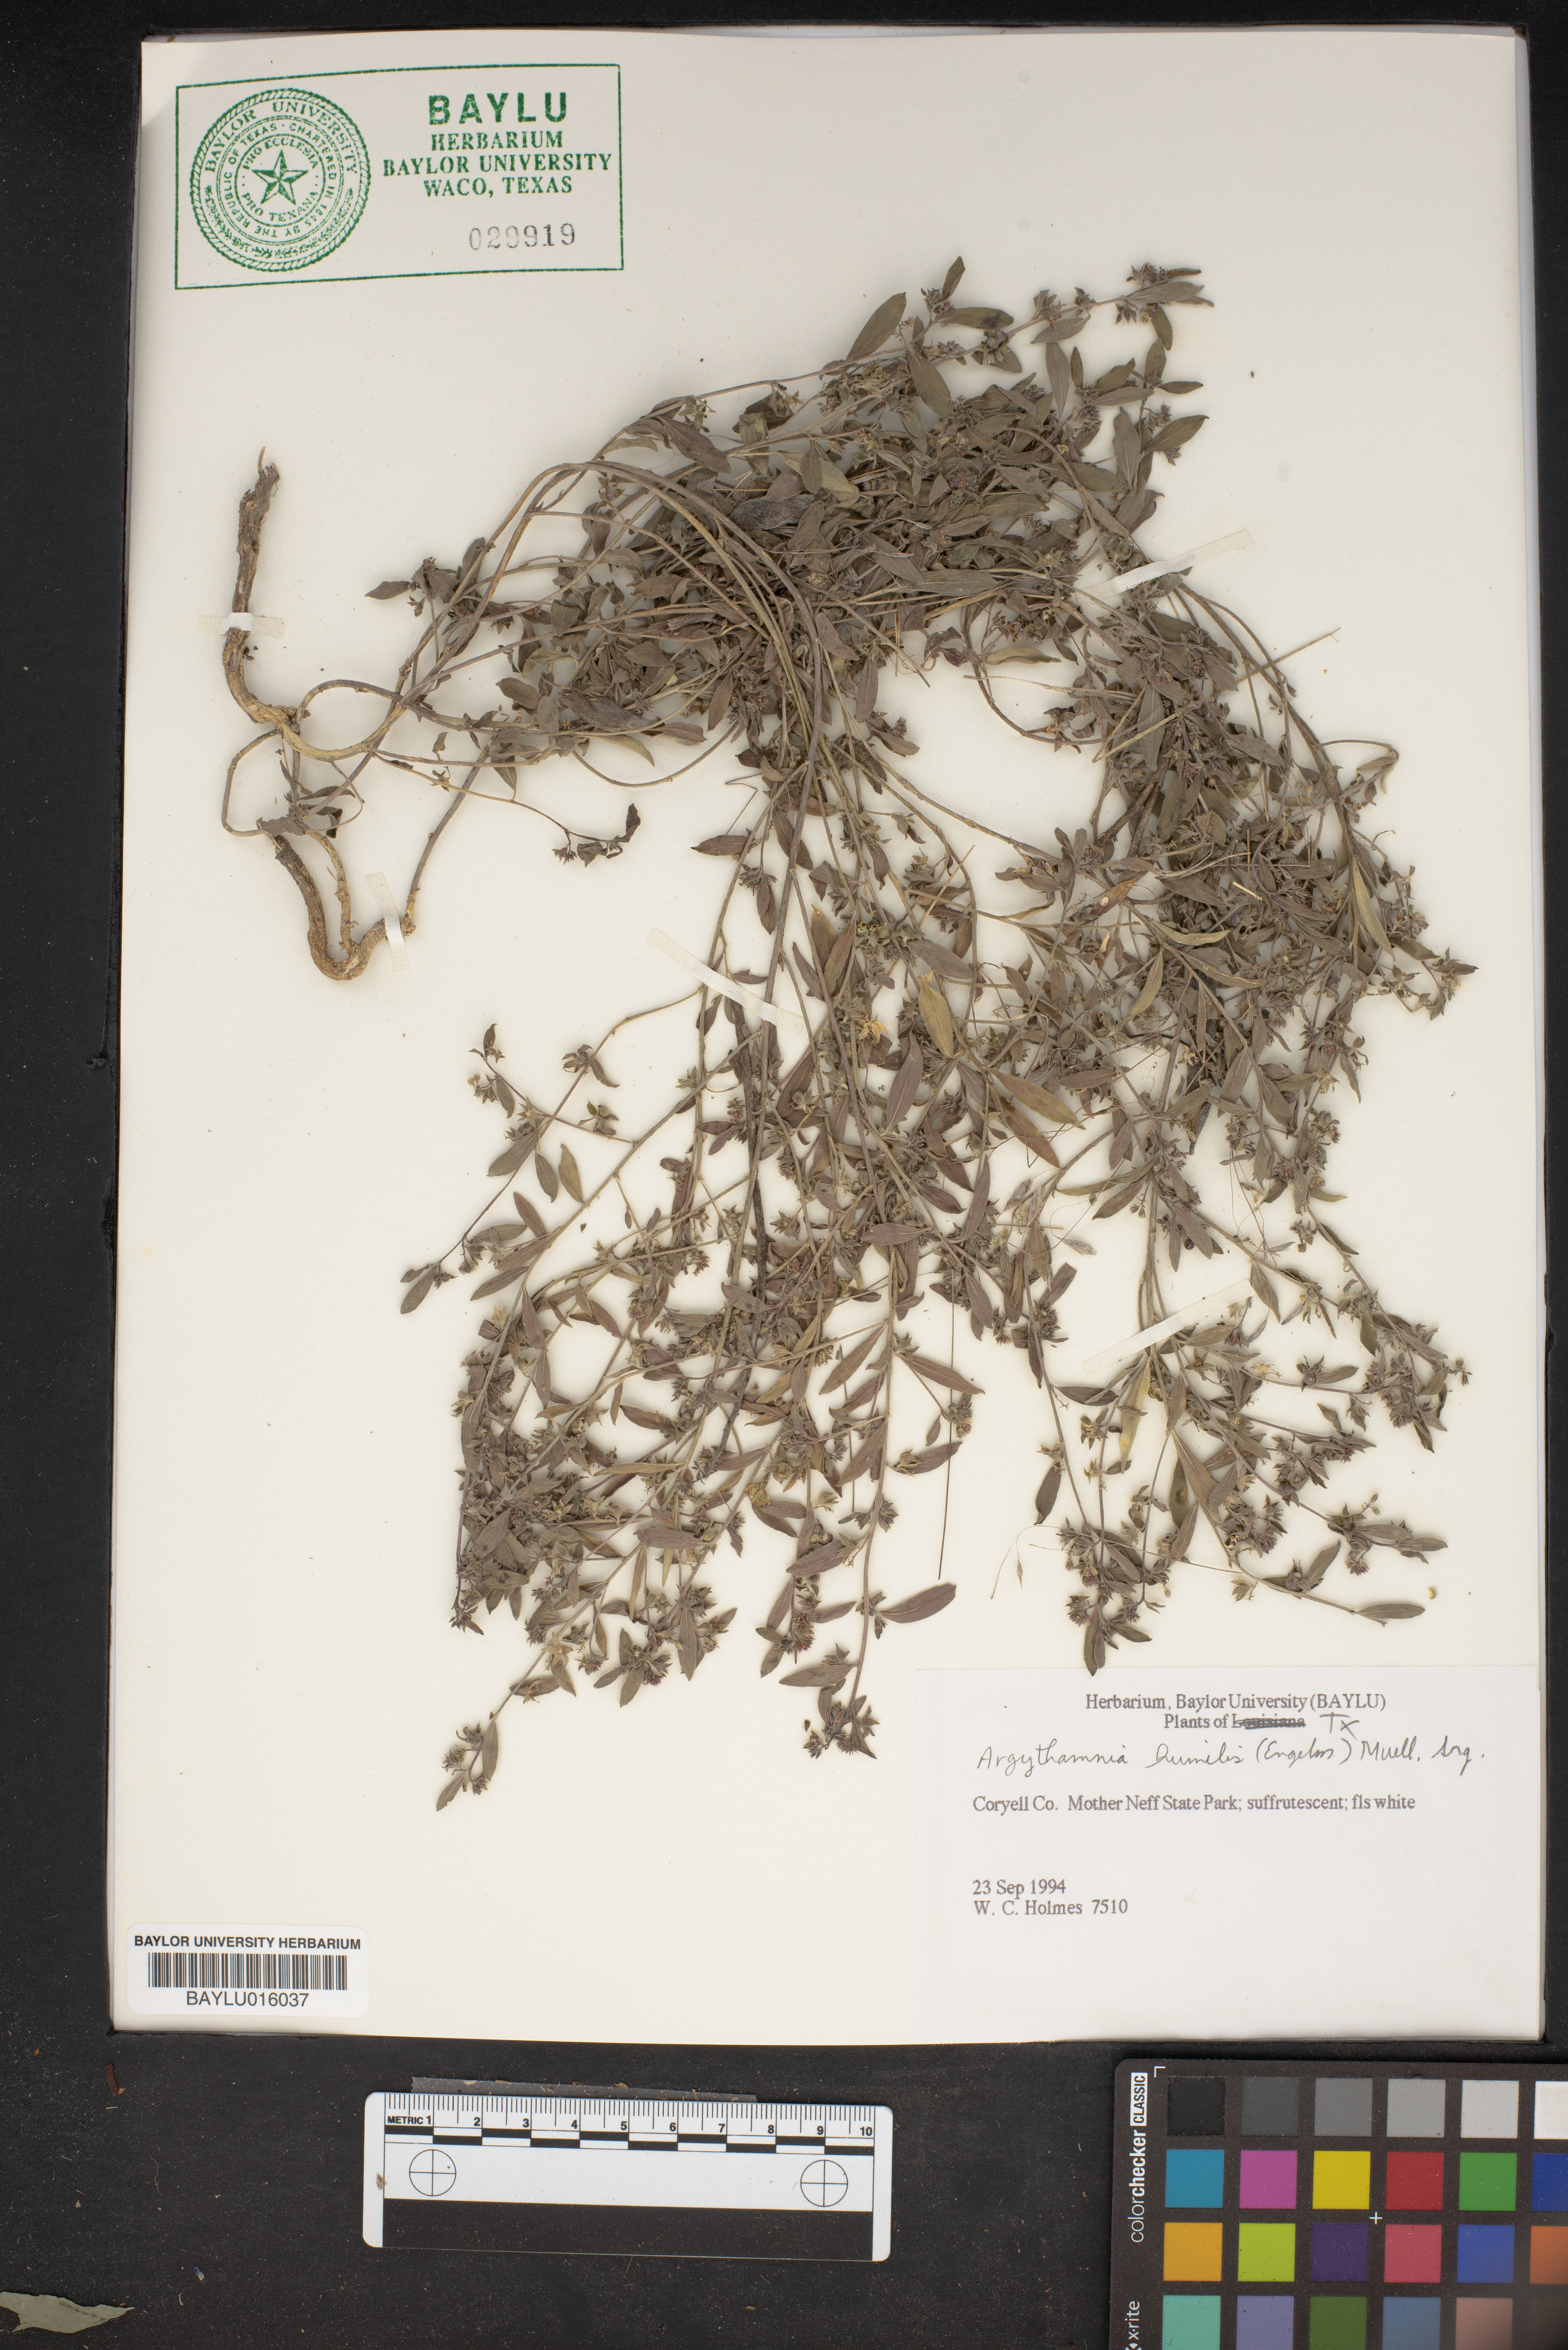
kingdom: Plantae
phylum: Tracheophyta
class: Magnoliopsida
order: Malpighiales
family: Euphorbiaceae
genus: Ditaxis
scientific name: Ditaxis humilis
